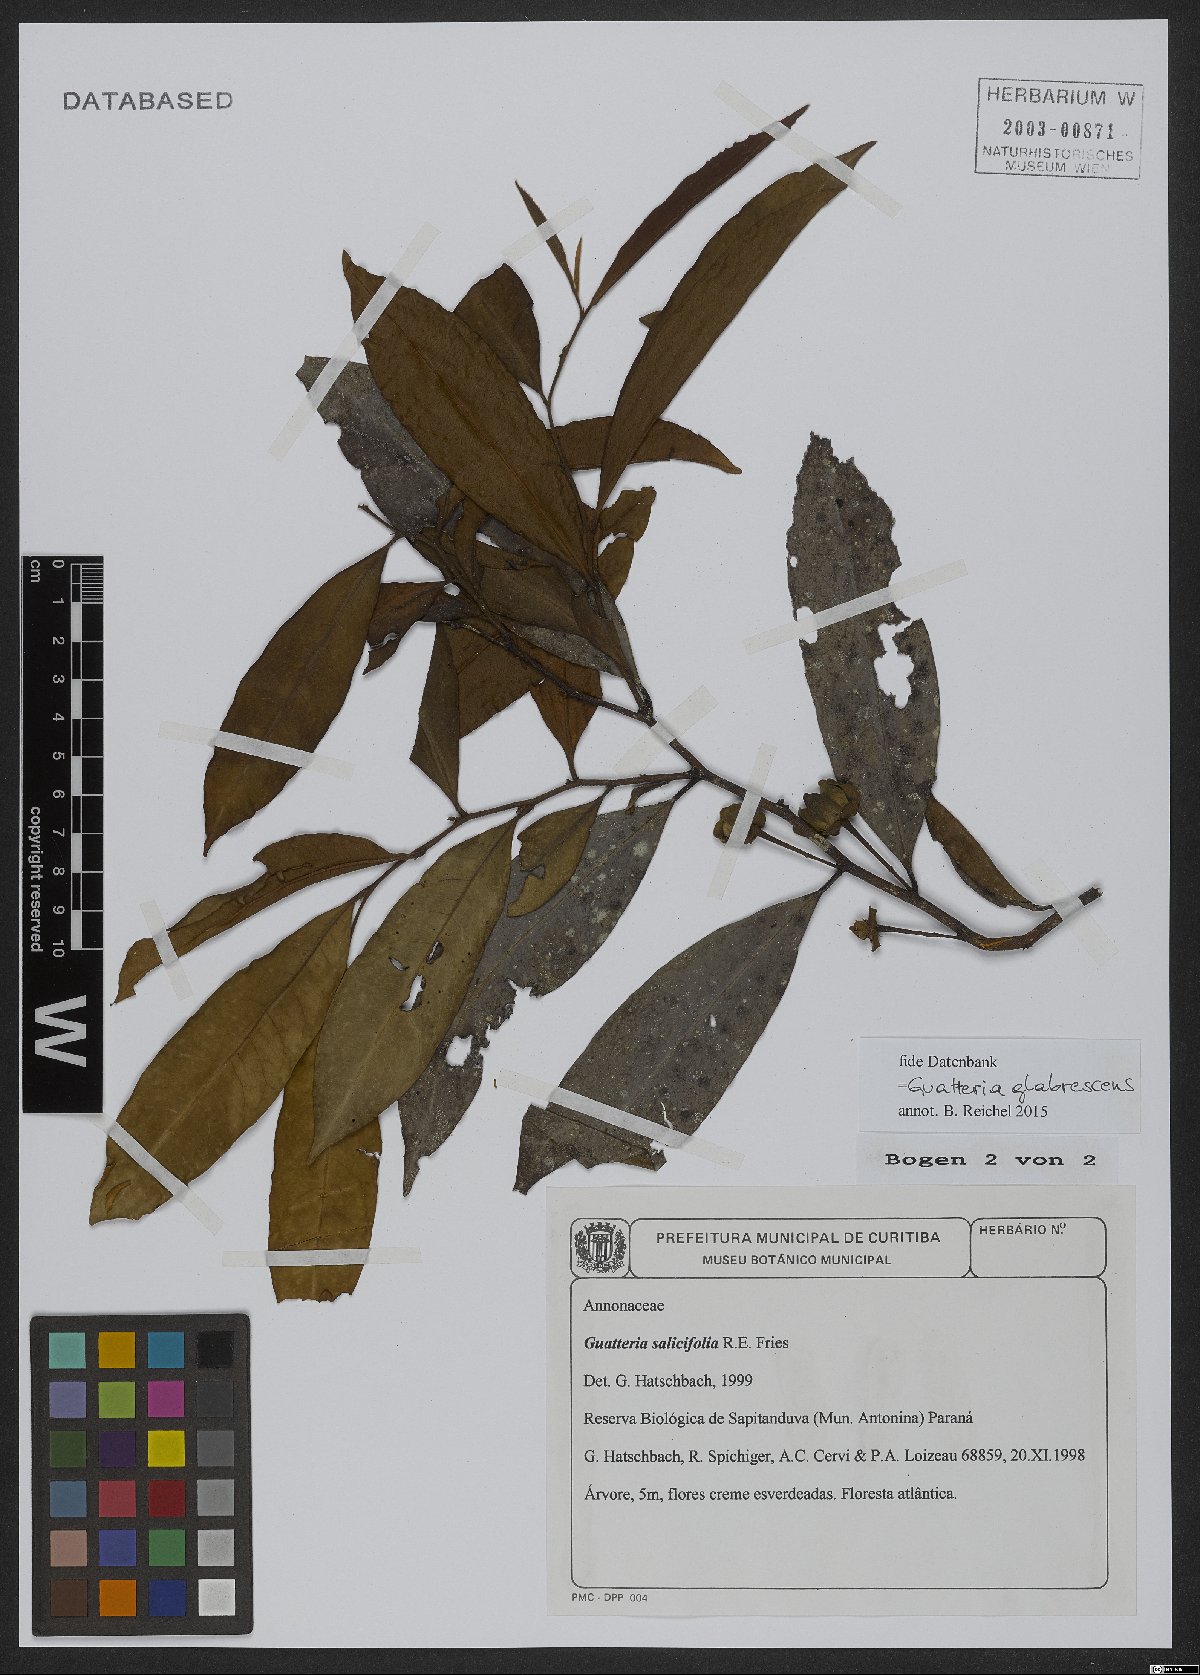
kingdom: Plantae
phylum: Tracheophyta
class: Magnoliopsida
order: Magnoliales
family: Annonaceae
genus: Guatteria
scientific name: Guatteria australis
